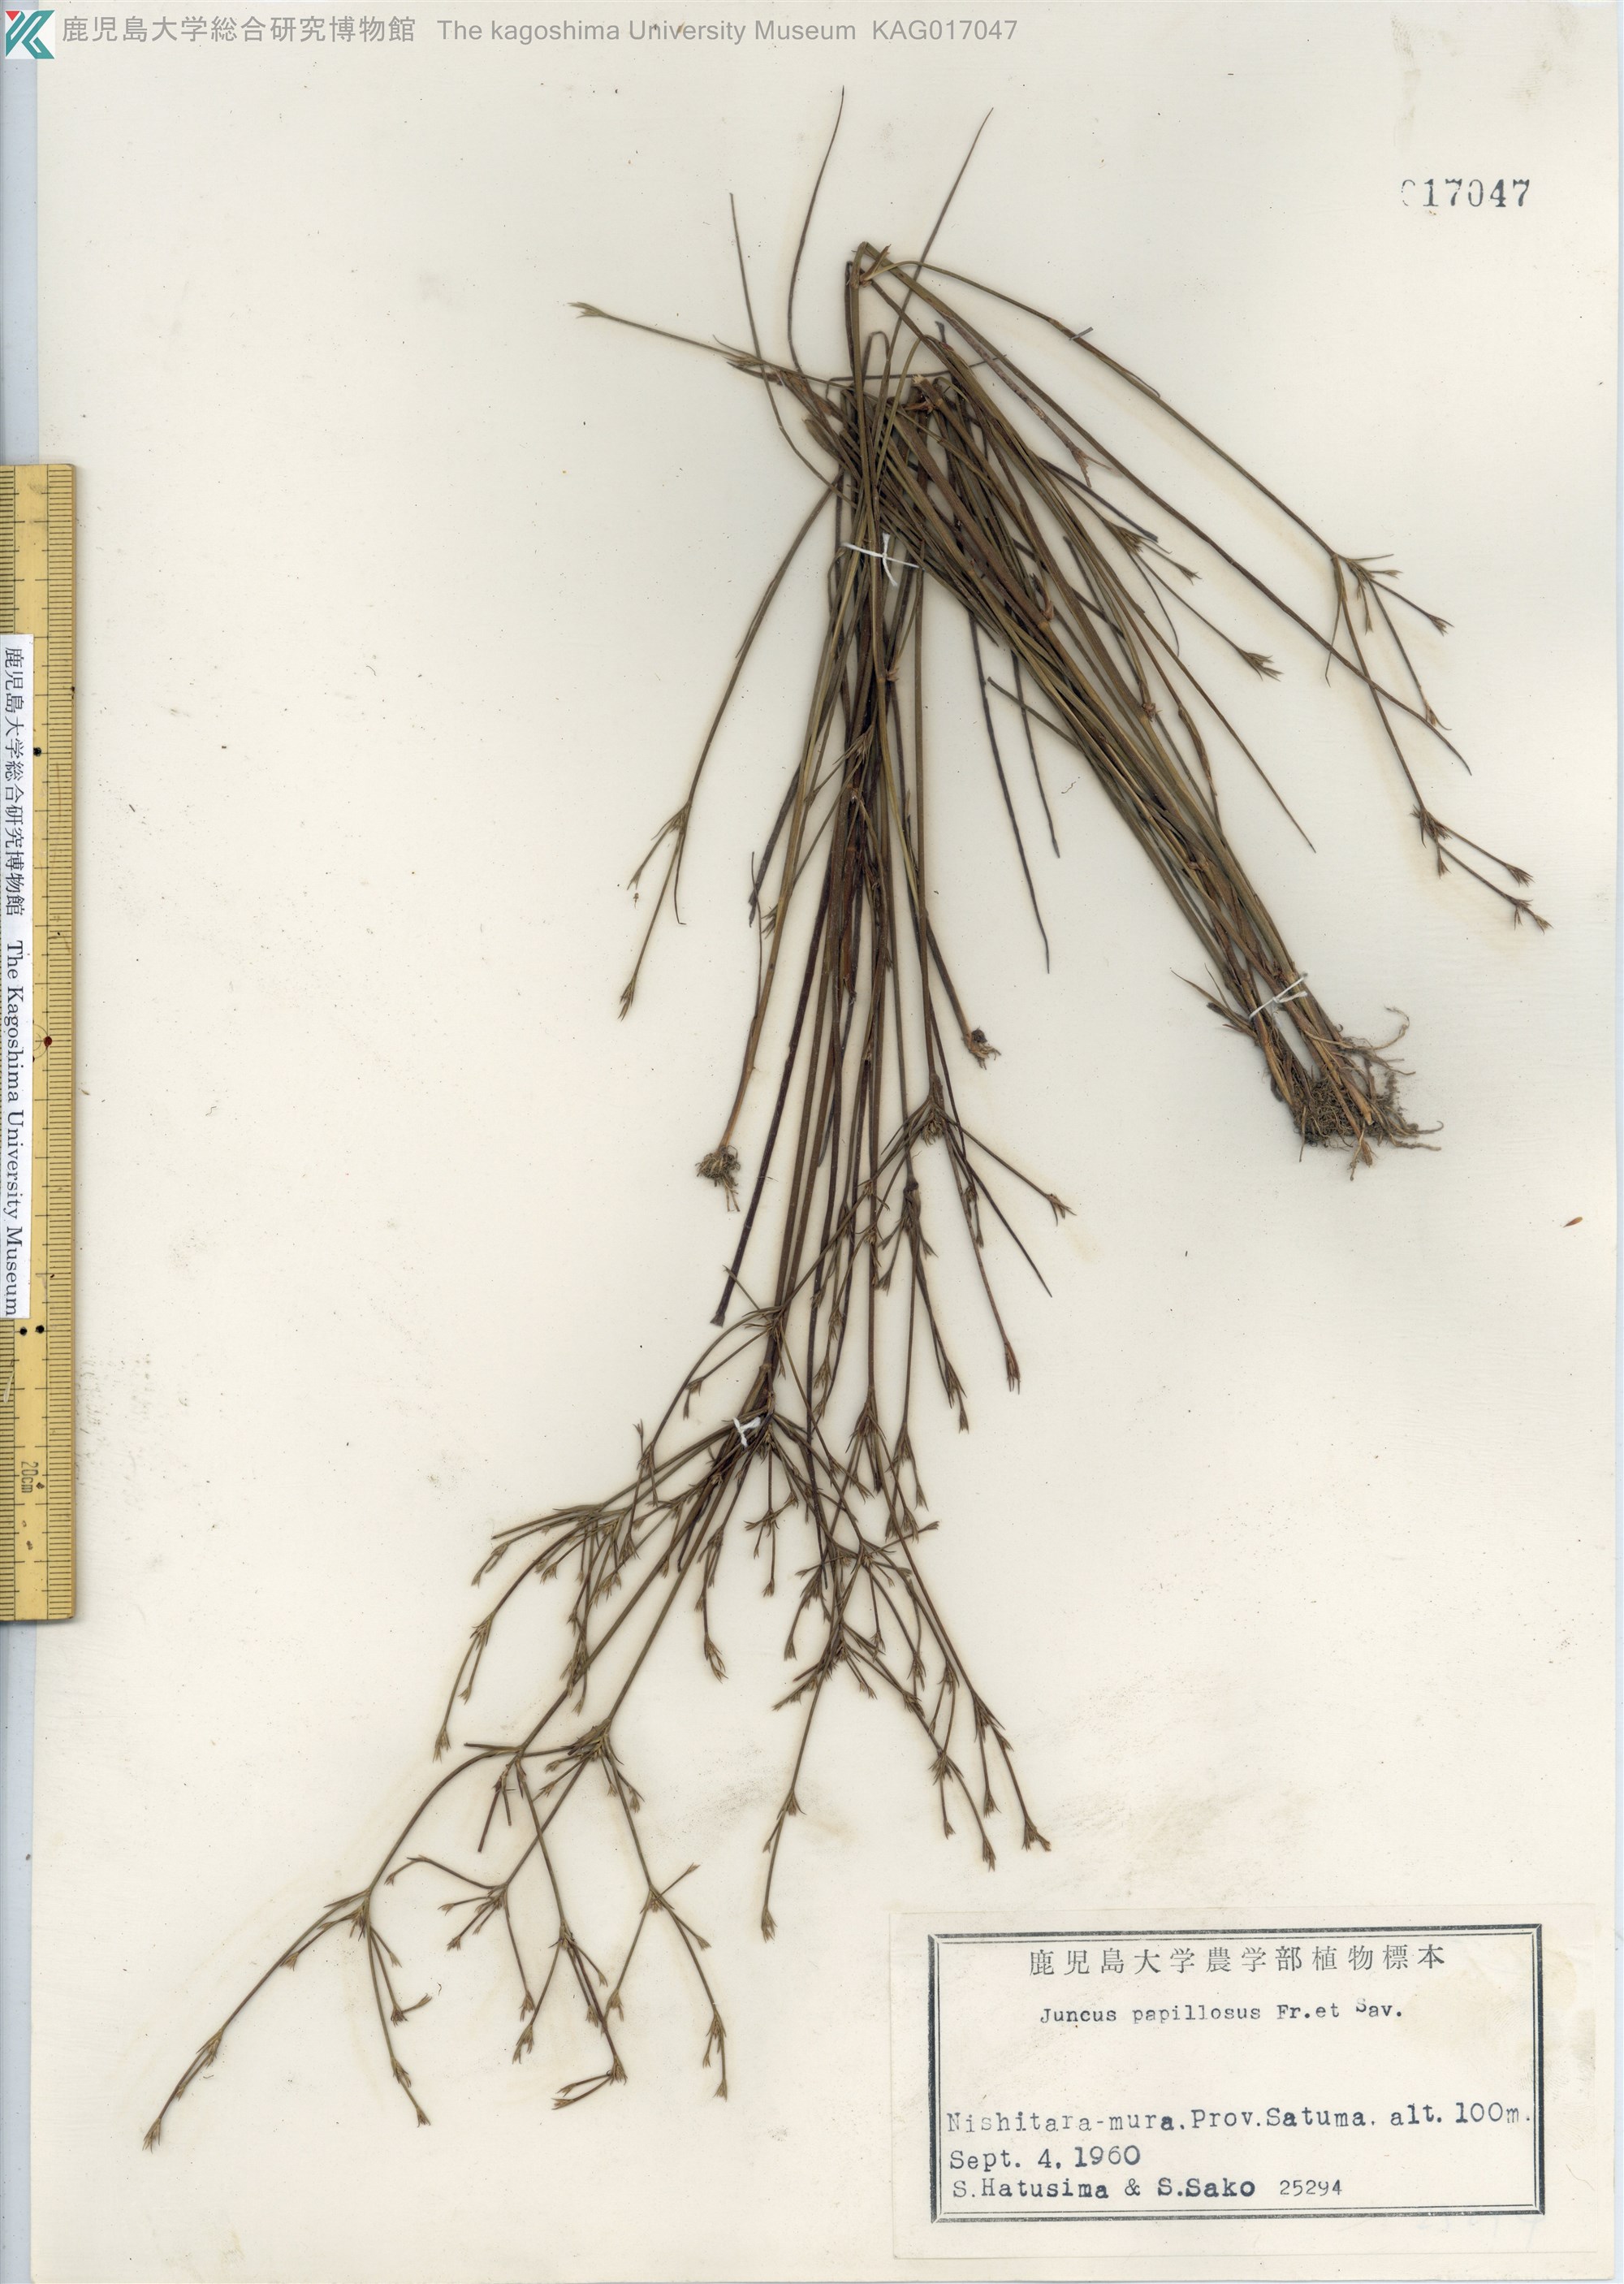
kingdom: Plantae
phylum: Tracheophyta
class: Liliopsida
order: Poales
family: Juncaceae
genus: Juncus
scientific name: Juncus papillosus
